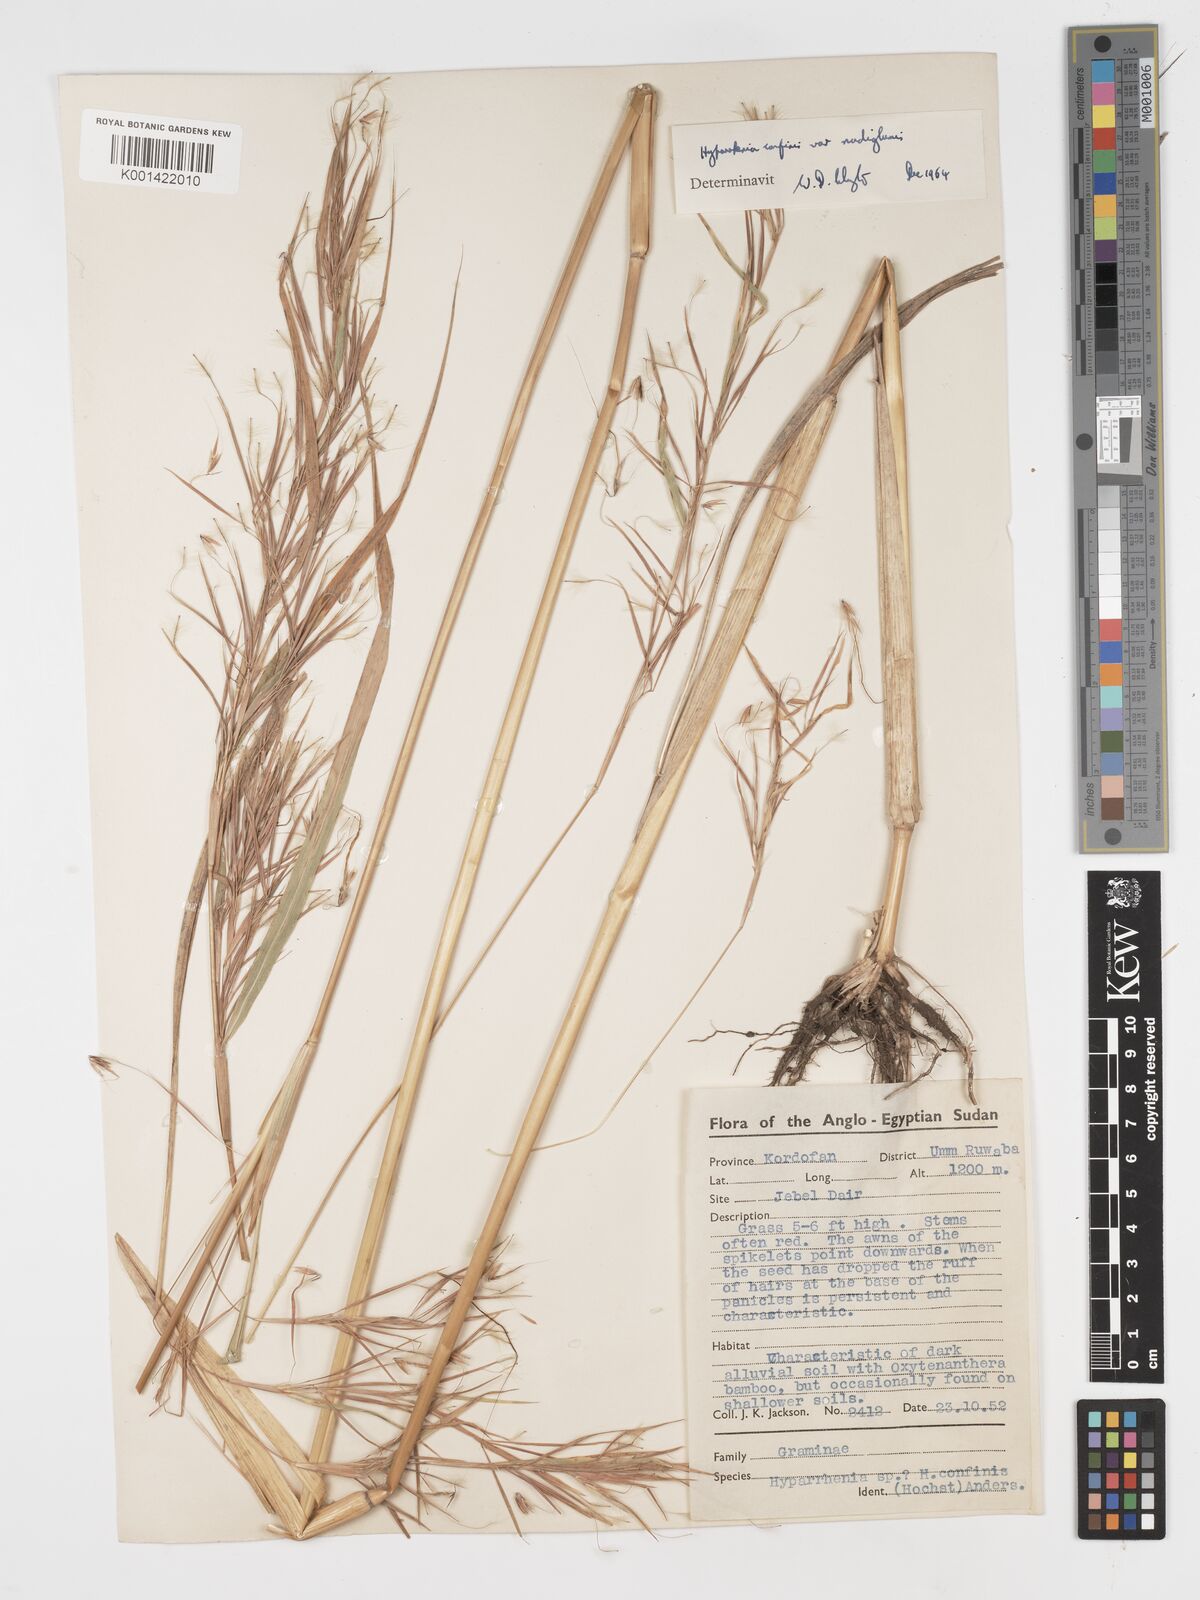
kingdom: Plantae
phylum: Tracheophyta
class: Liliopsida
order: Poales
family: Poaceae
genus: Hyparrhenia
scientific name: Hyparrhenia confinis
